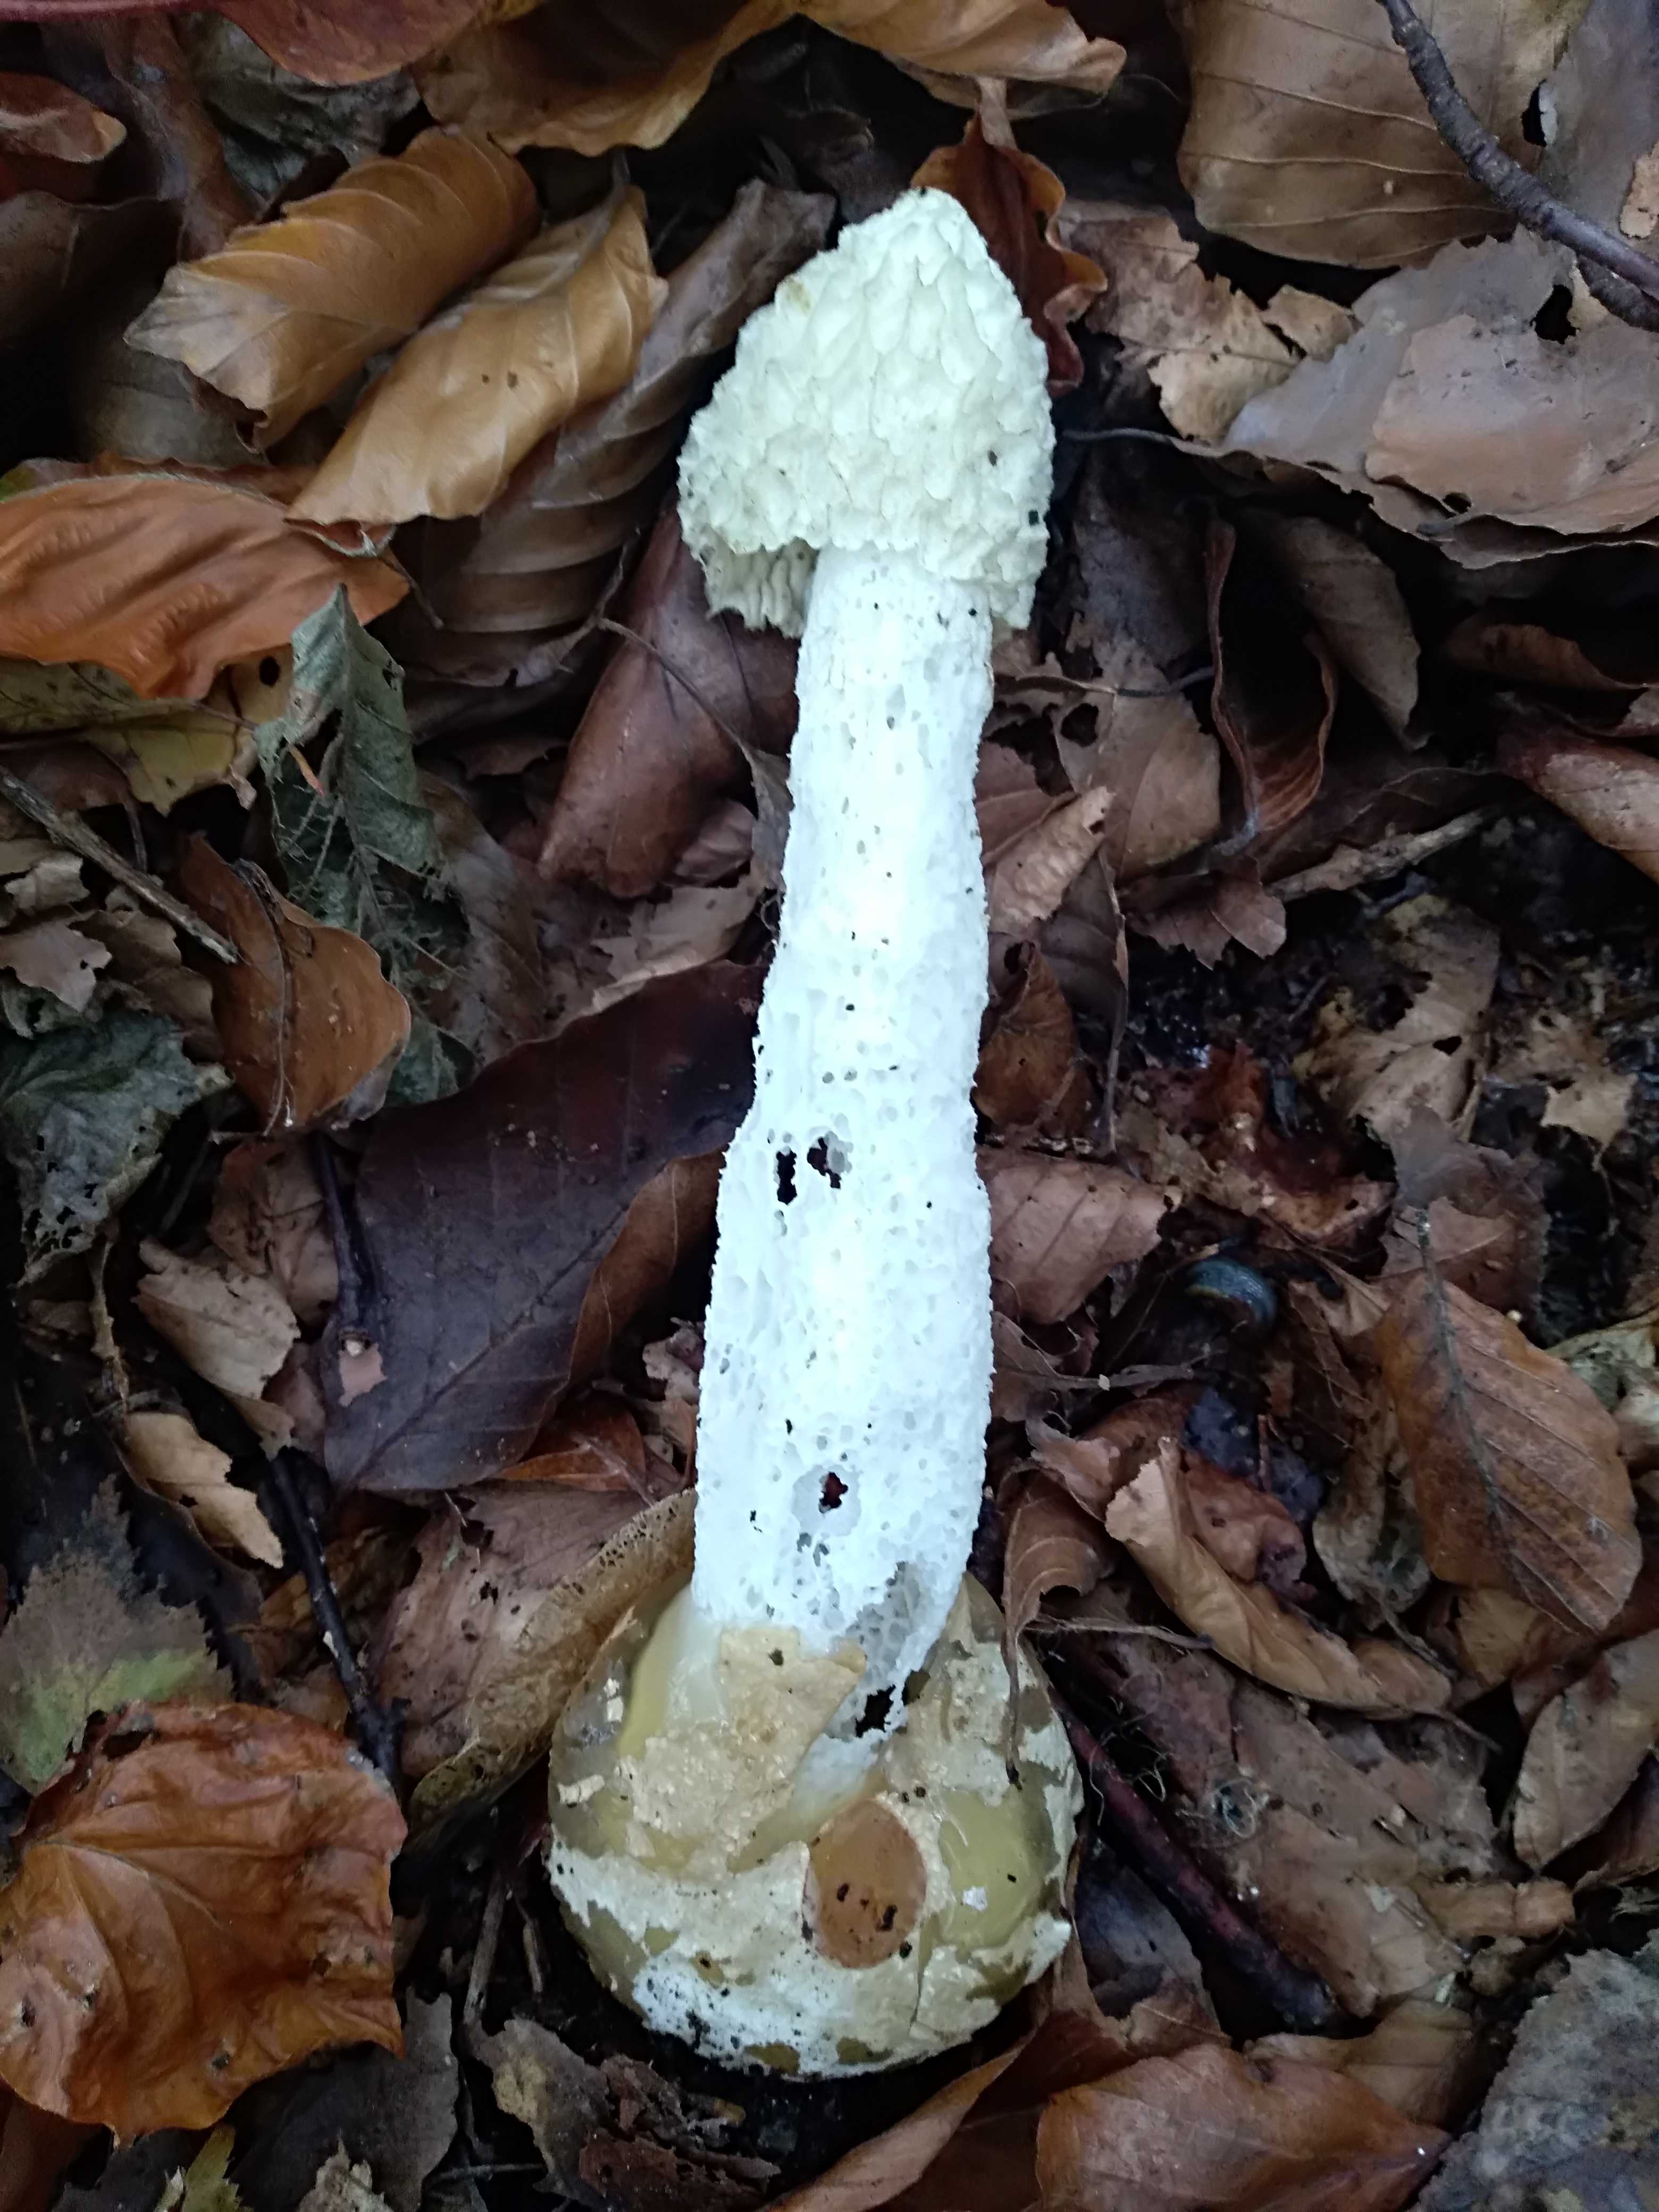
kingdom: Fungi
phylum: Basidiomycota
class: Agaricomycetes
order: Phallales
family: Phallaceae
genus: Phallus
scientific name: Phallus impudicus
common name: almindelig stinksvamp
